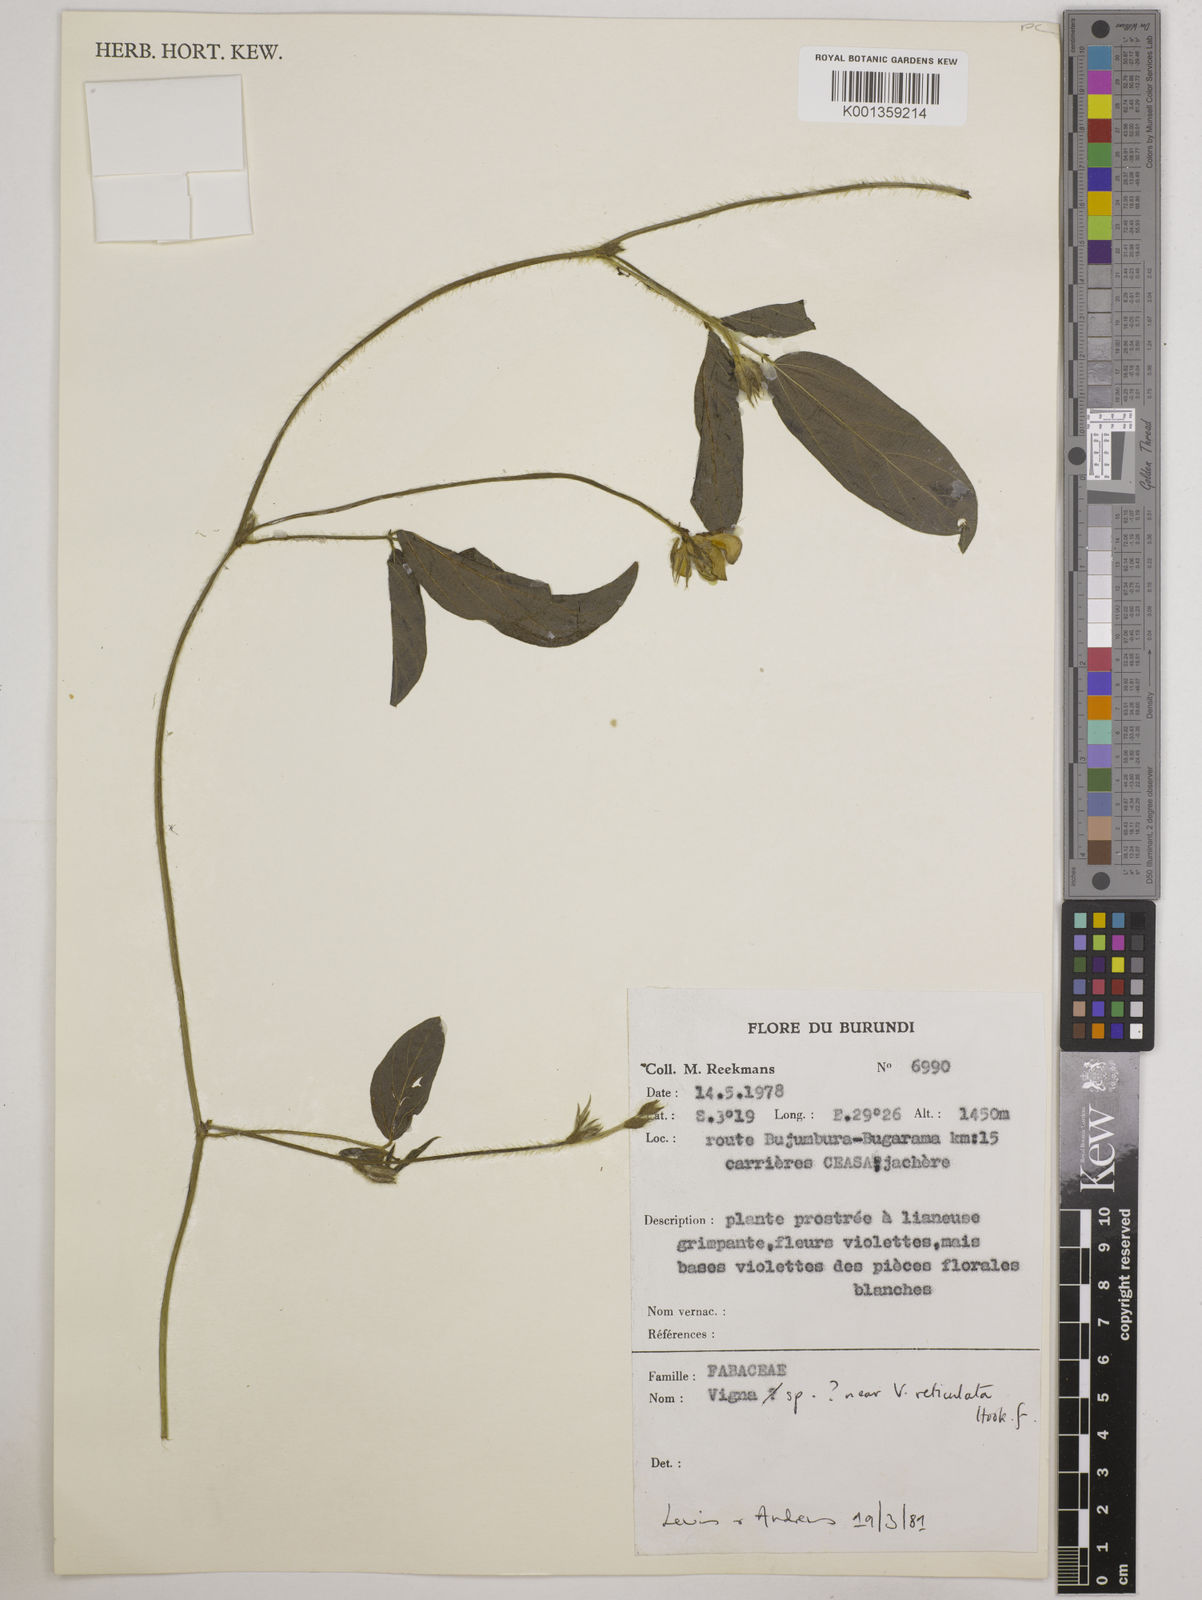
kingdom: Plantae
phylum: Tracheophyta
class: Magnoliopsida
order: Fabales
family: Fabaceae
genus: Vigna
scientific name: Vigna
